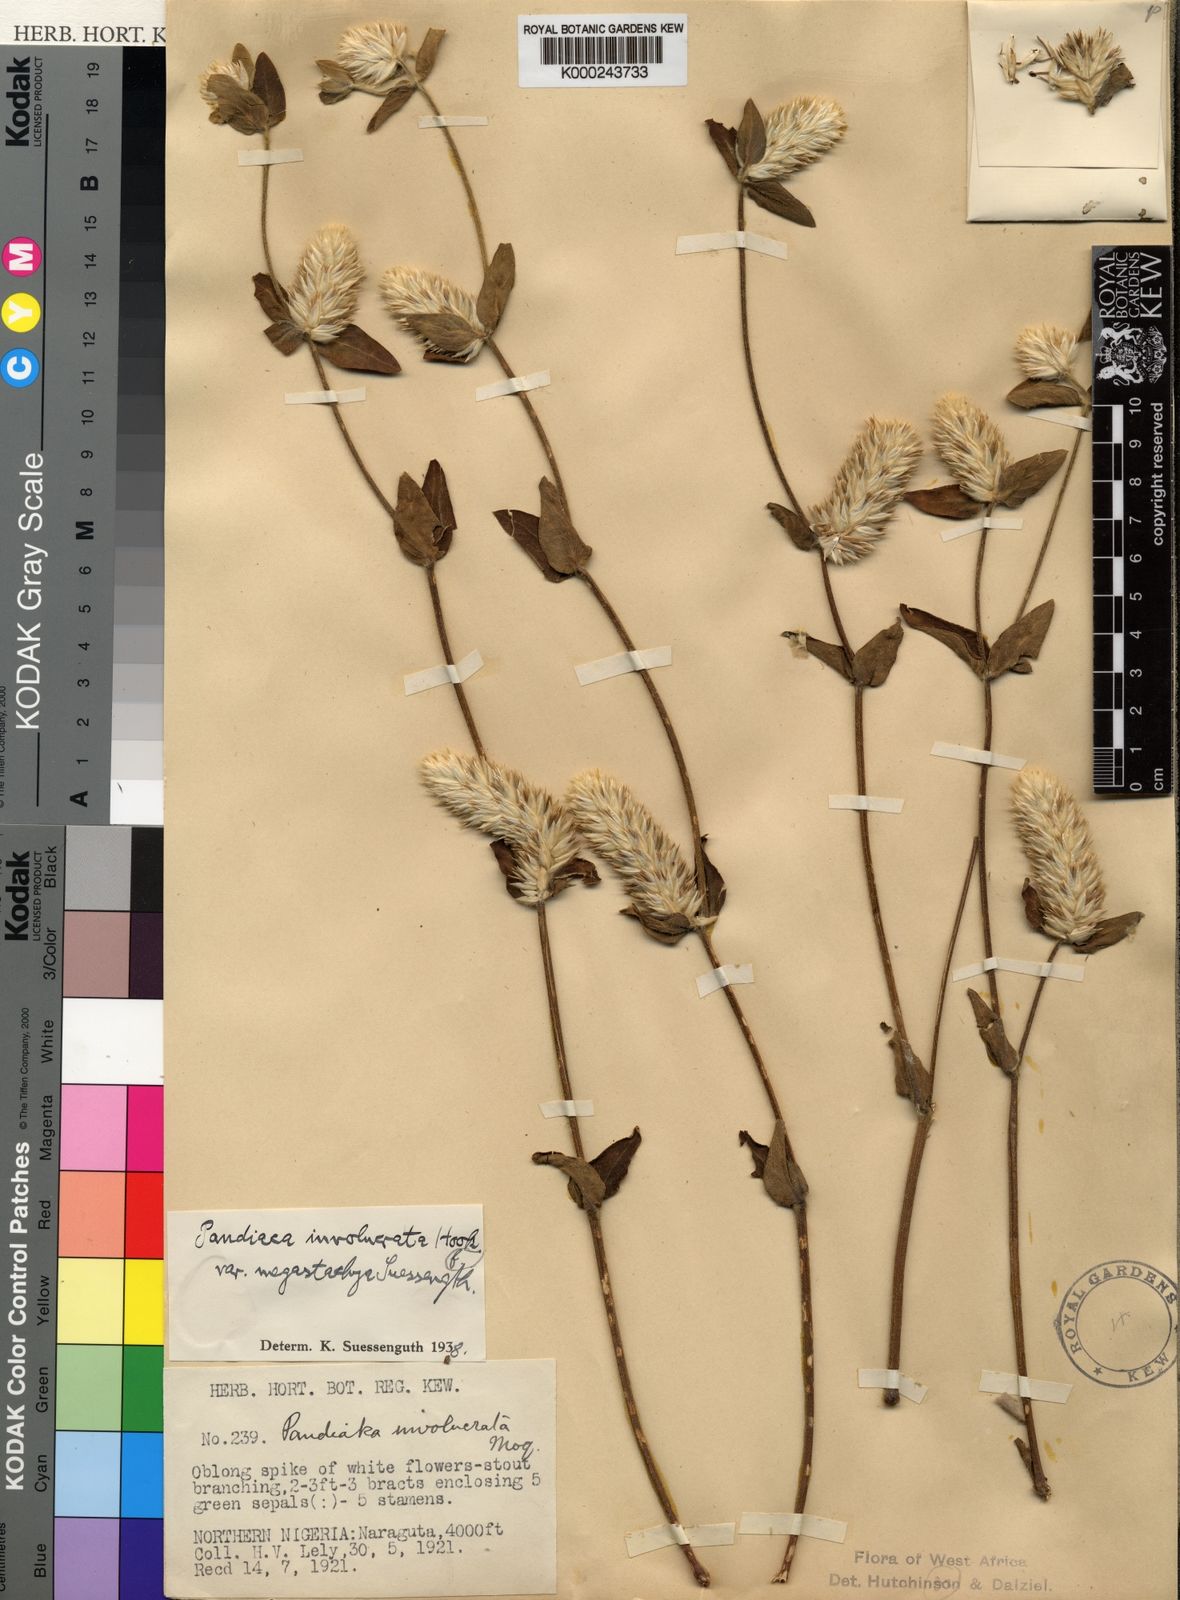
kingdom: Plantae
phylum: Tracheophyta
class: Magnoliopsida
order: Caryophyllales
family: Amaranthaceae
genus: Pandiaka
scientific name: Pandiaka
